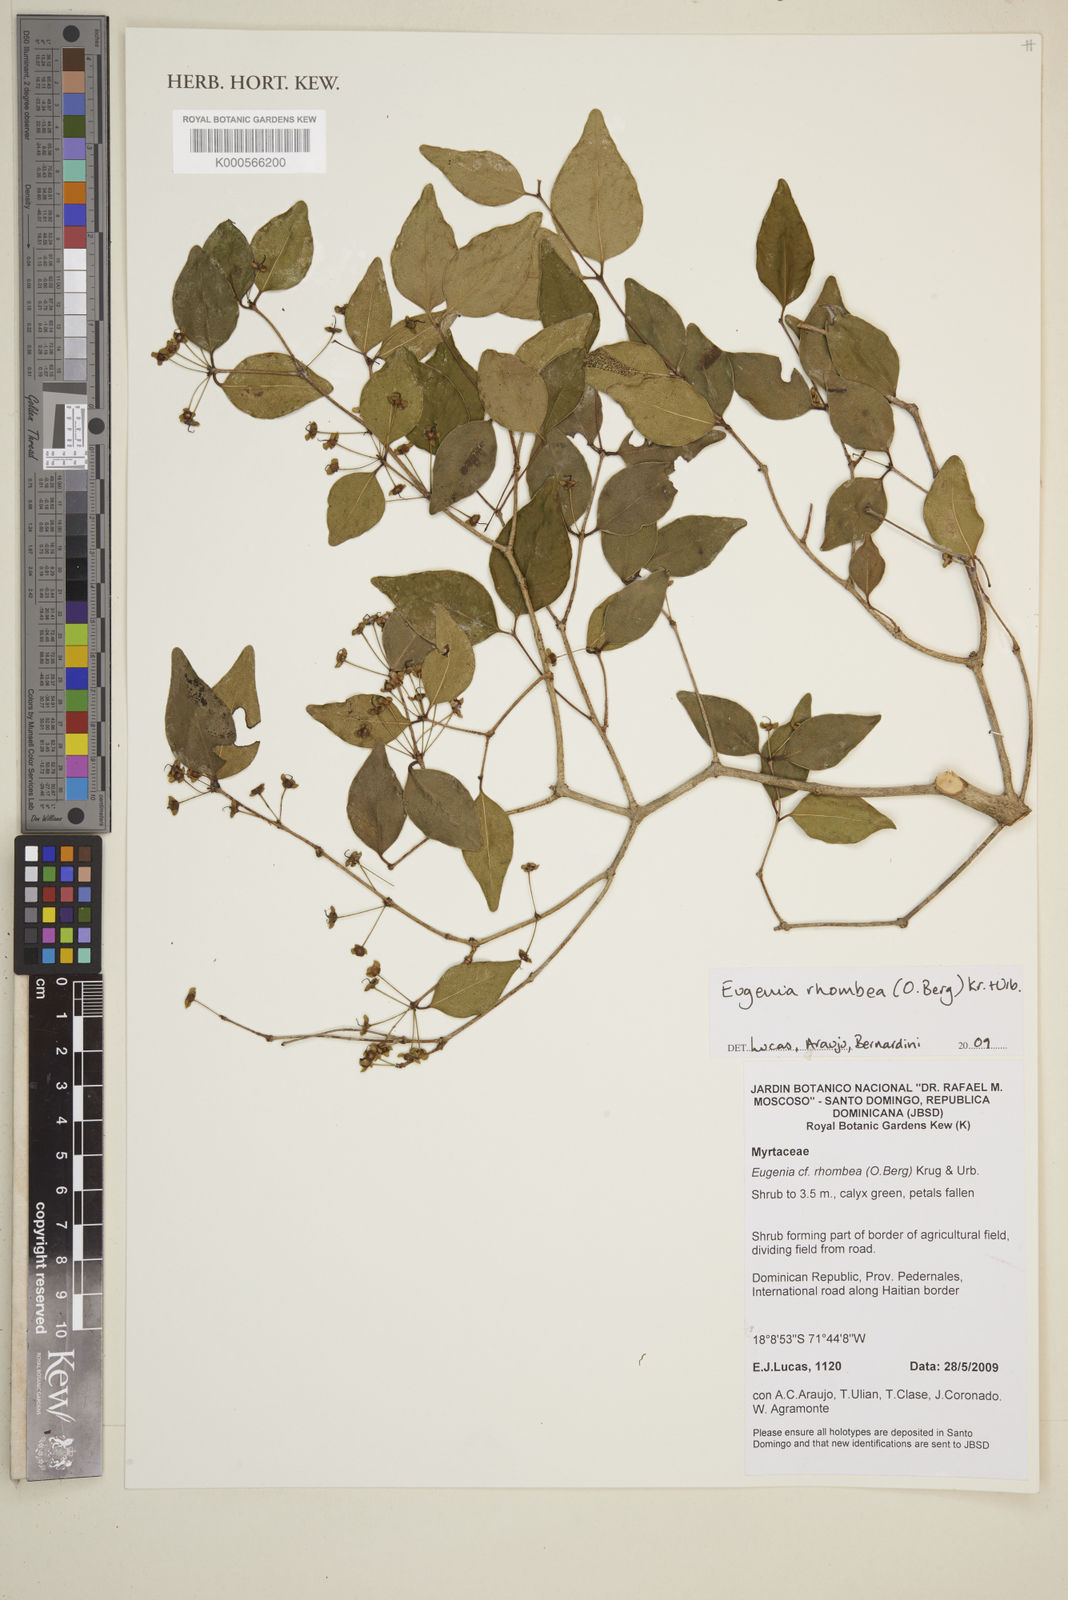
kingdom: Plantae
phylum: Tracheophyta
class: Magnoliopsida
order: Myrtales
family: Myrtaceae
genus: Eugenia
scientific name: Eugenia rhombea
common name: Pigeon berry
